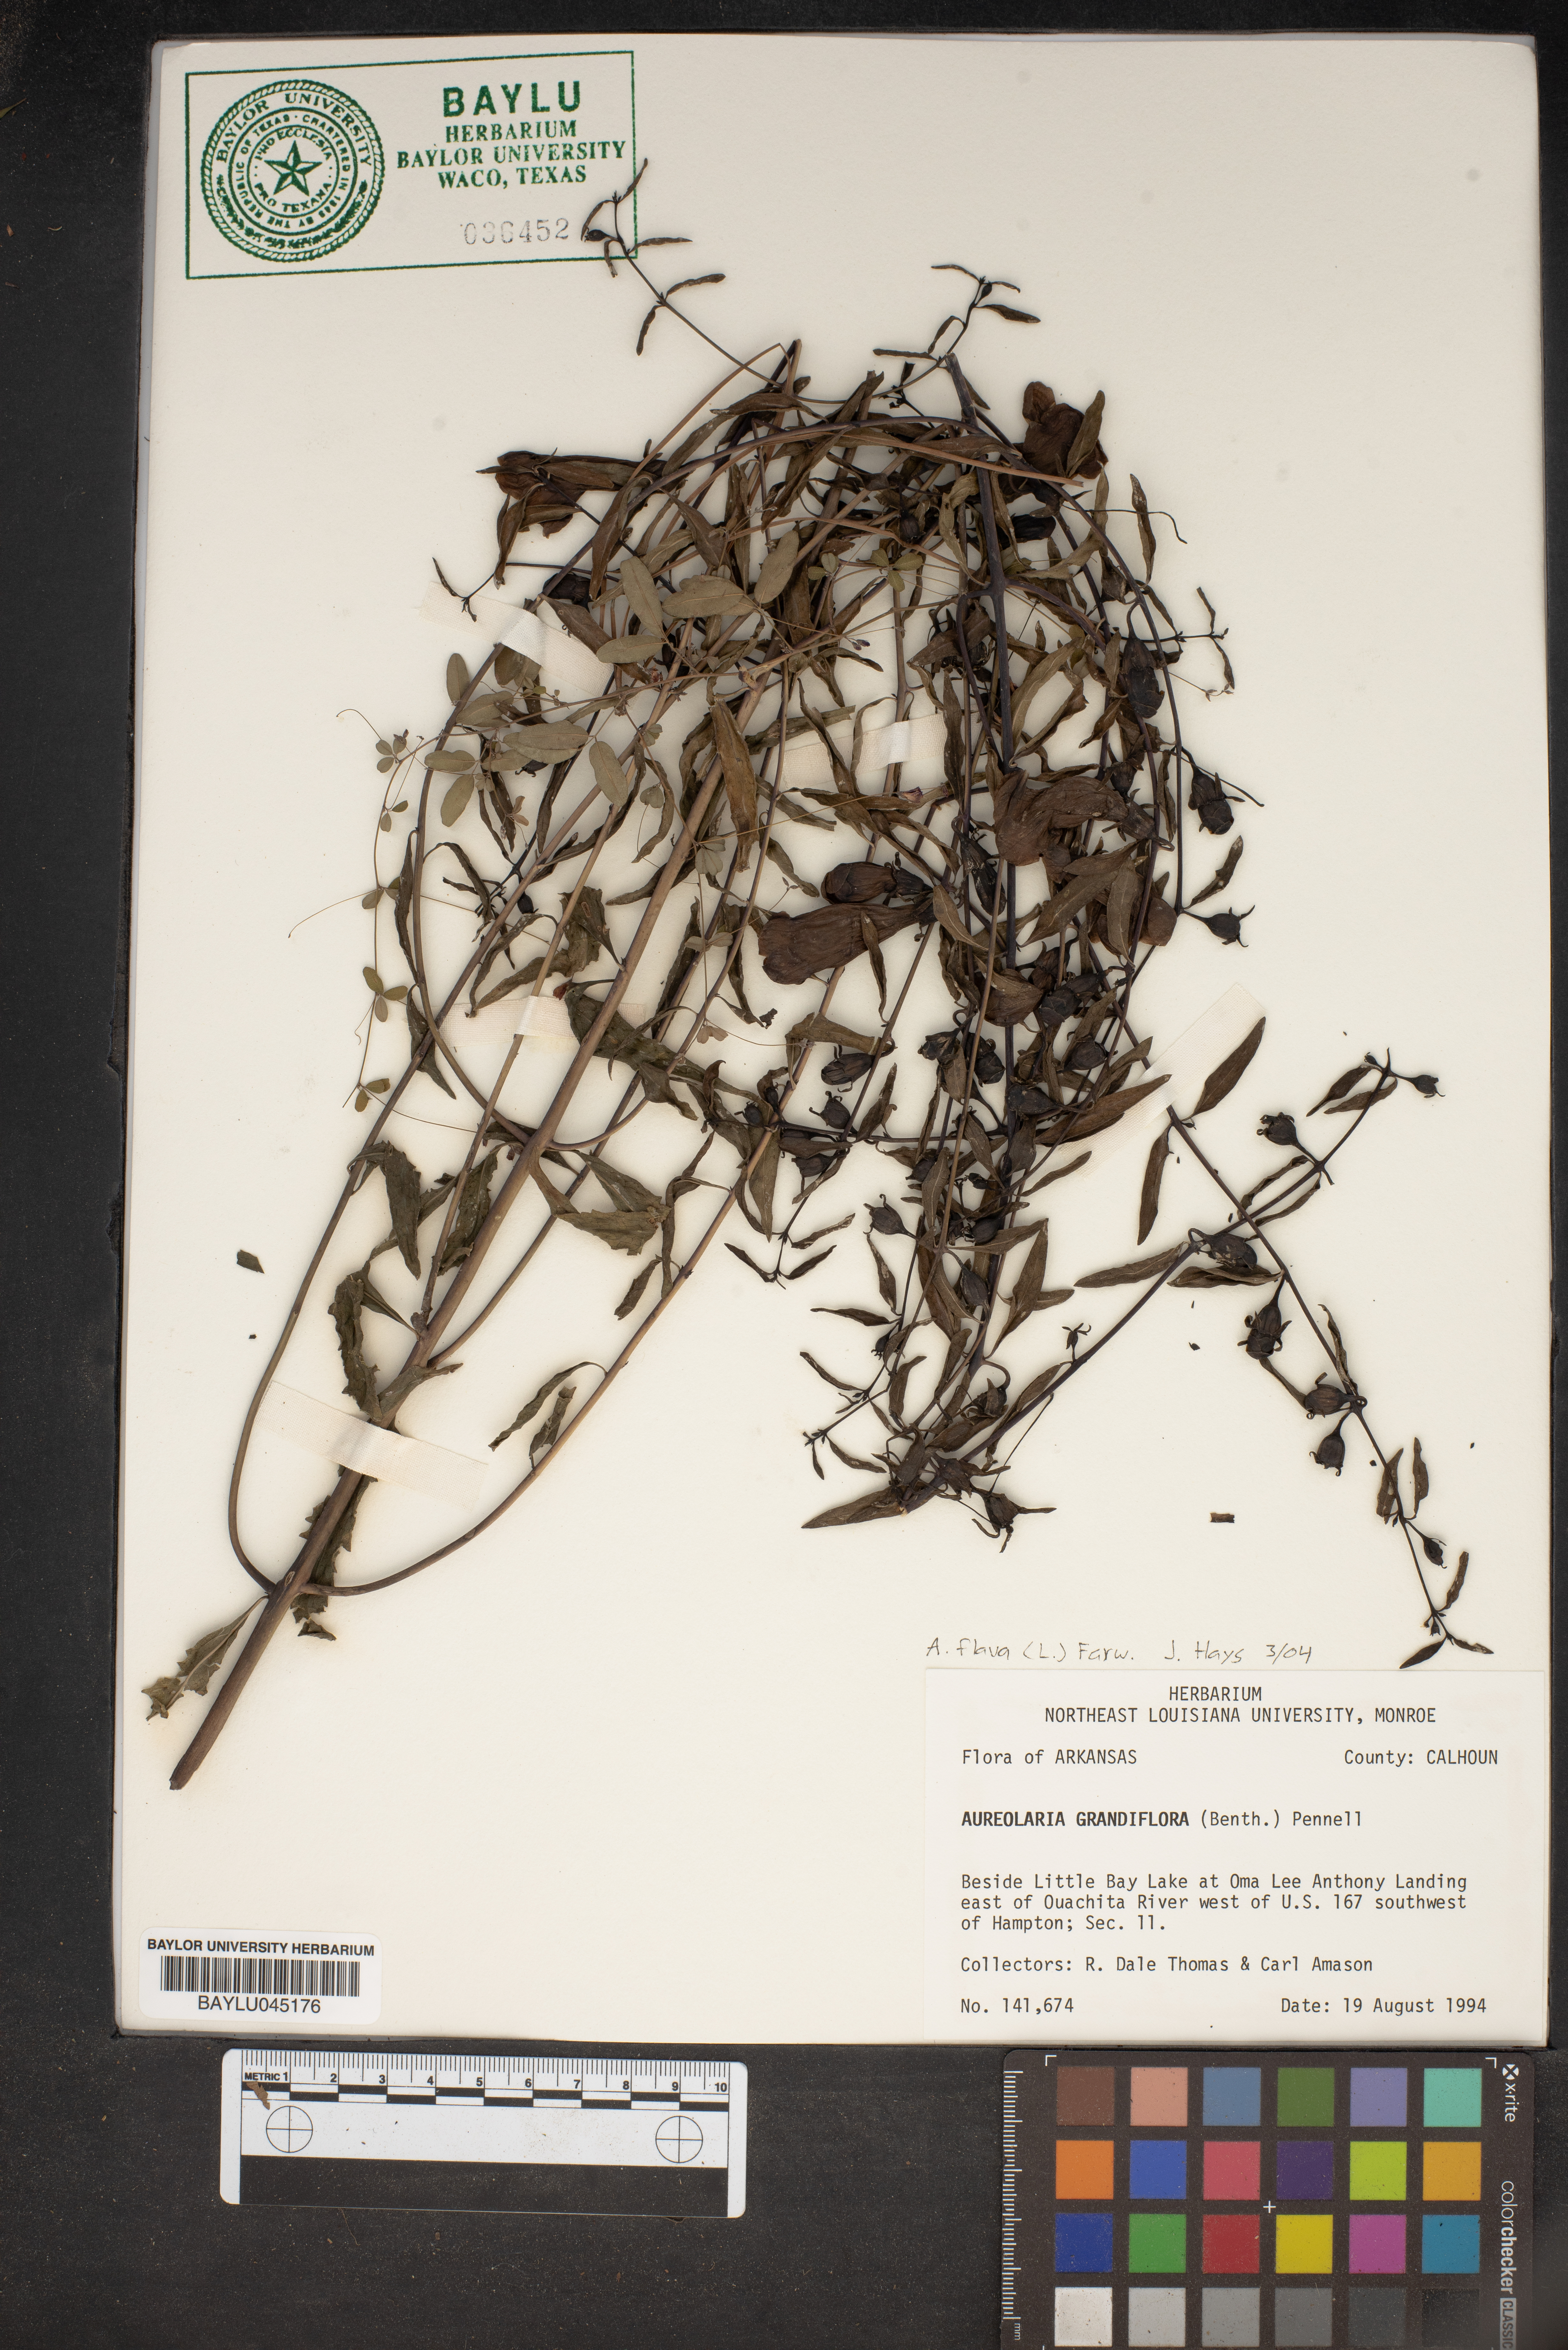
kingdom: Plantae
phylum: Tracheophyta
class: Magnoliopsida
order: Lamiales
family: Orobanchaceae
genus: Aureolaria
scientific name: Aureolaria grandiflora
